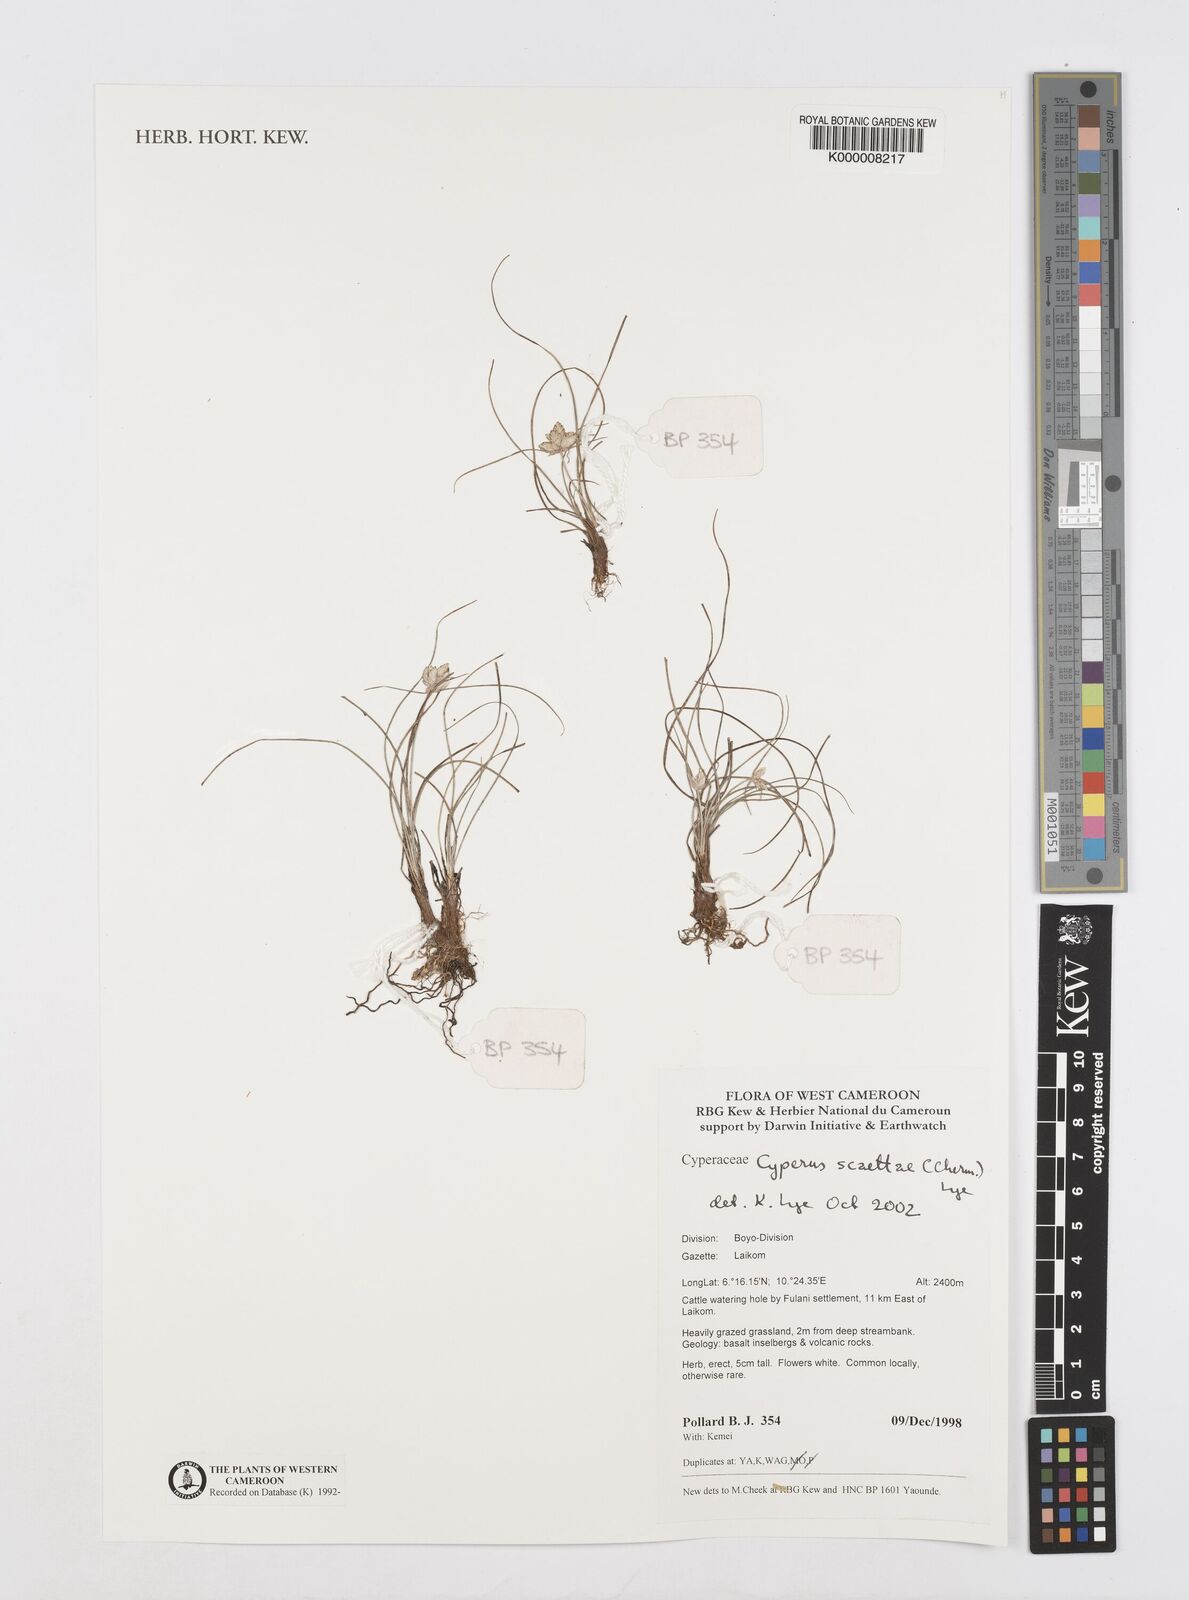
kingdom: Plantae
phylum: Tracheophyta
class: Liliopsida
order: Poales
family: Cyperaceae
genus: Cyperus
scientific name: Cyperus scaettae
